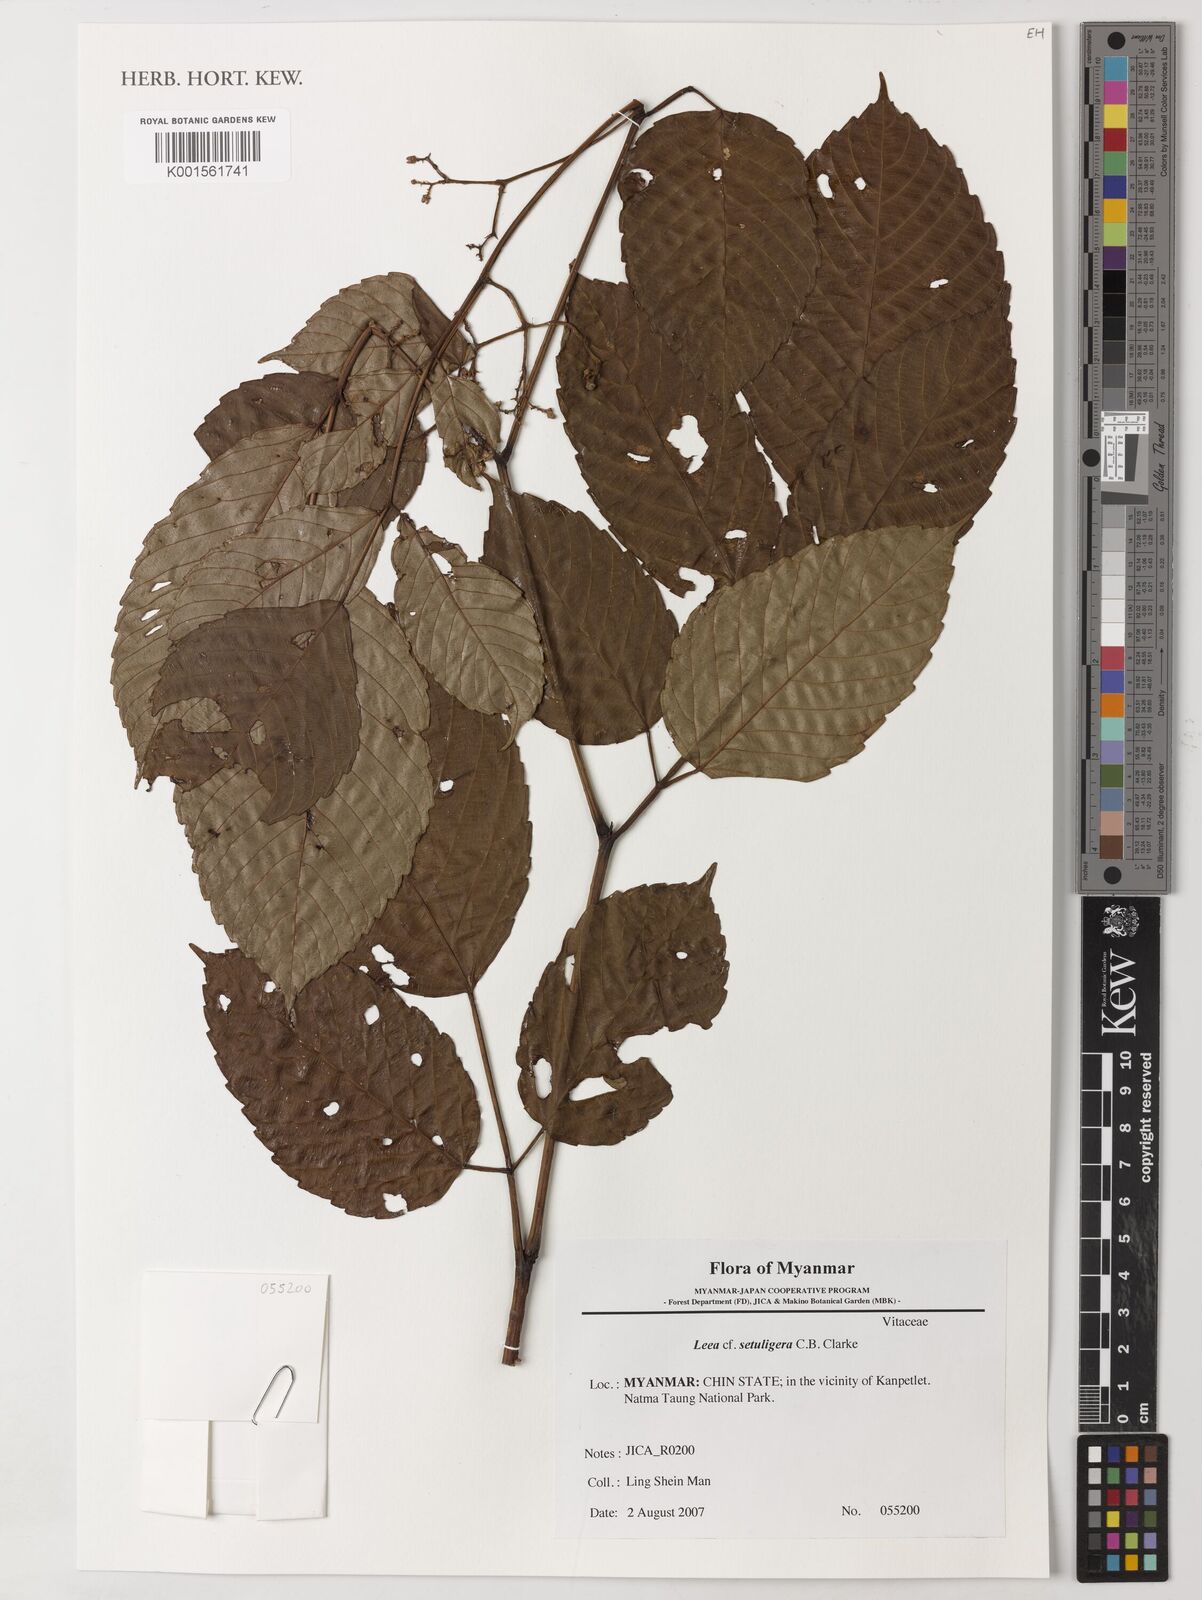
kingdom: Plantae
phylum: Tracheophyta
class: Magnoliopsida
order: Vitales
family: Vitaceae
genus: Leea
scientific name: Leea setuligera
